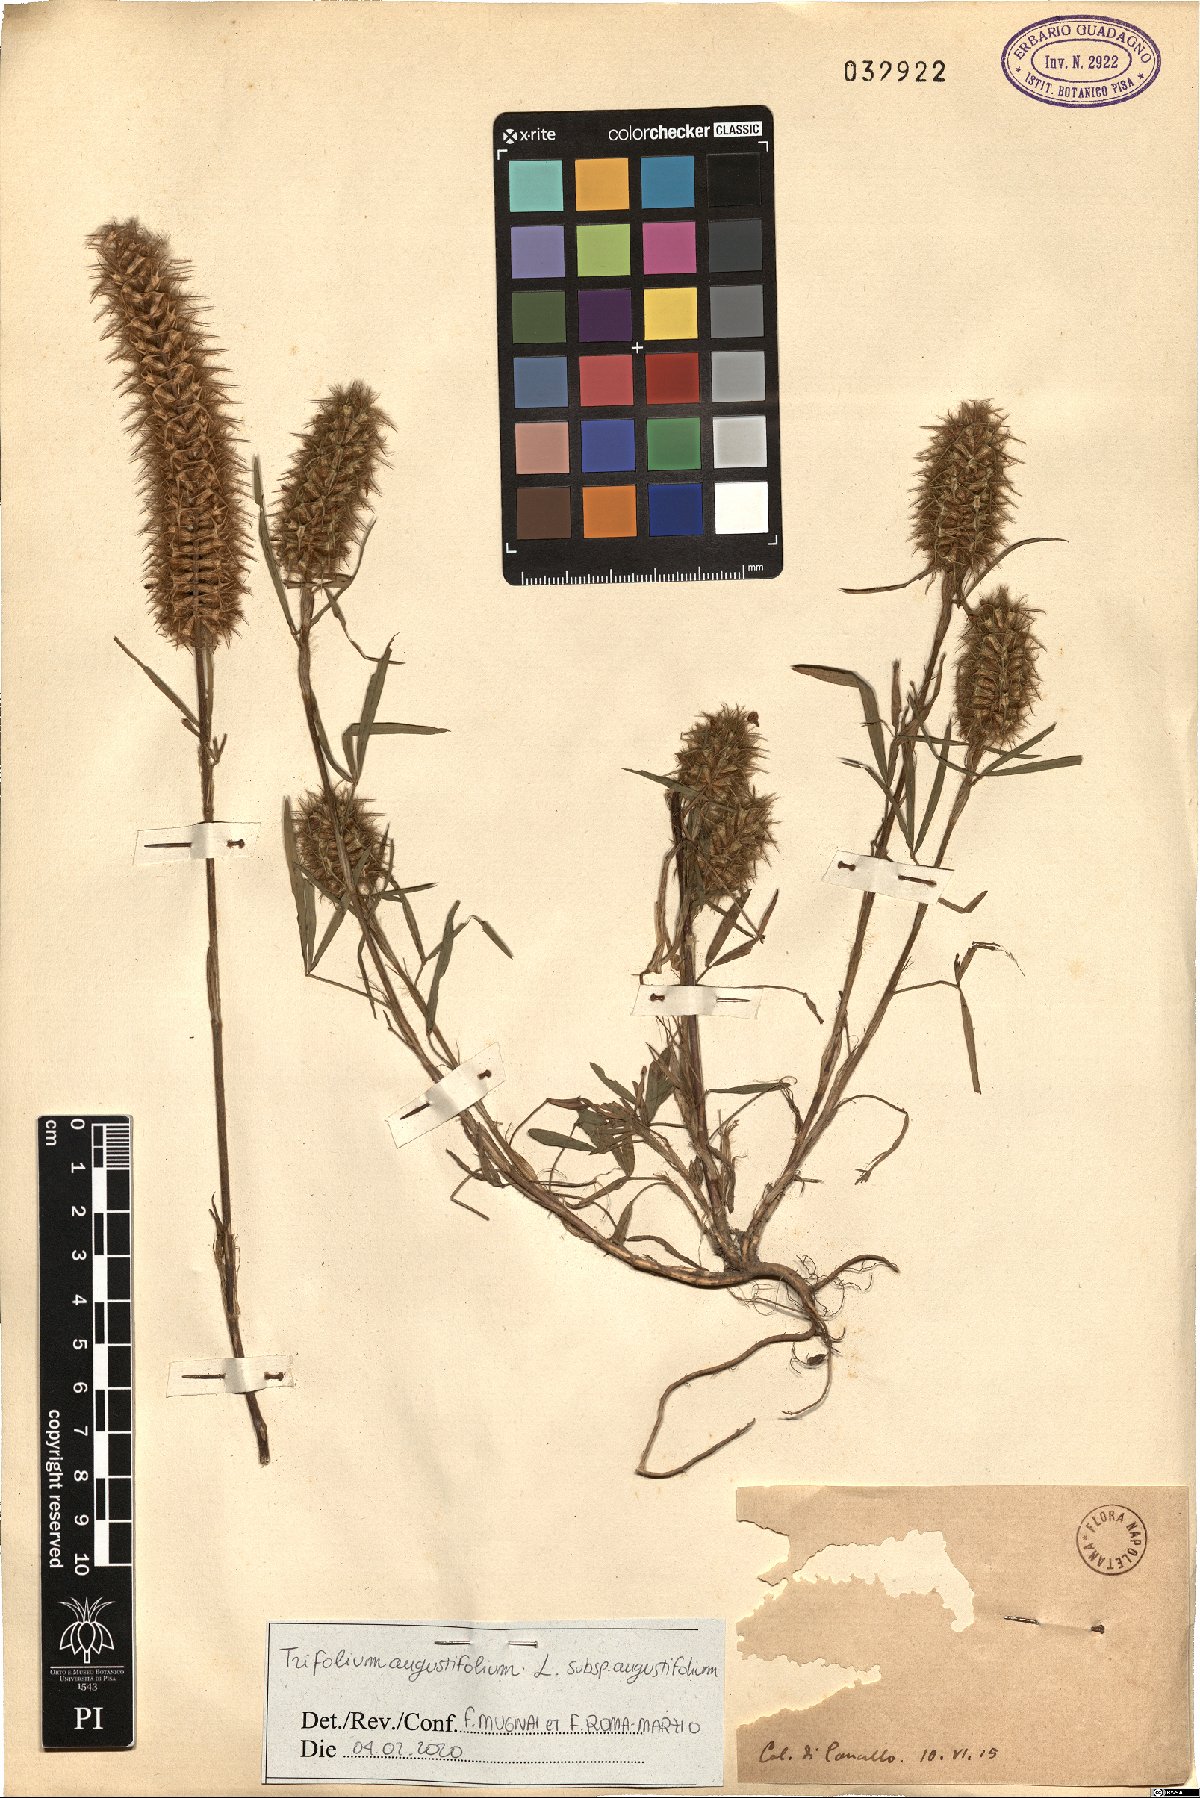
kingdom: Plantae
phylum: Tracheophyta
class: Magnoliopsida
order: Fabales
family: Fabaceae
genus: Trifolium
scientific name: Trifolium angustifolium
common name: Narrow clover
